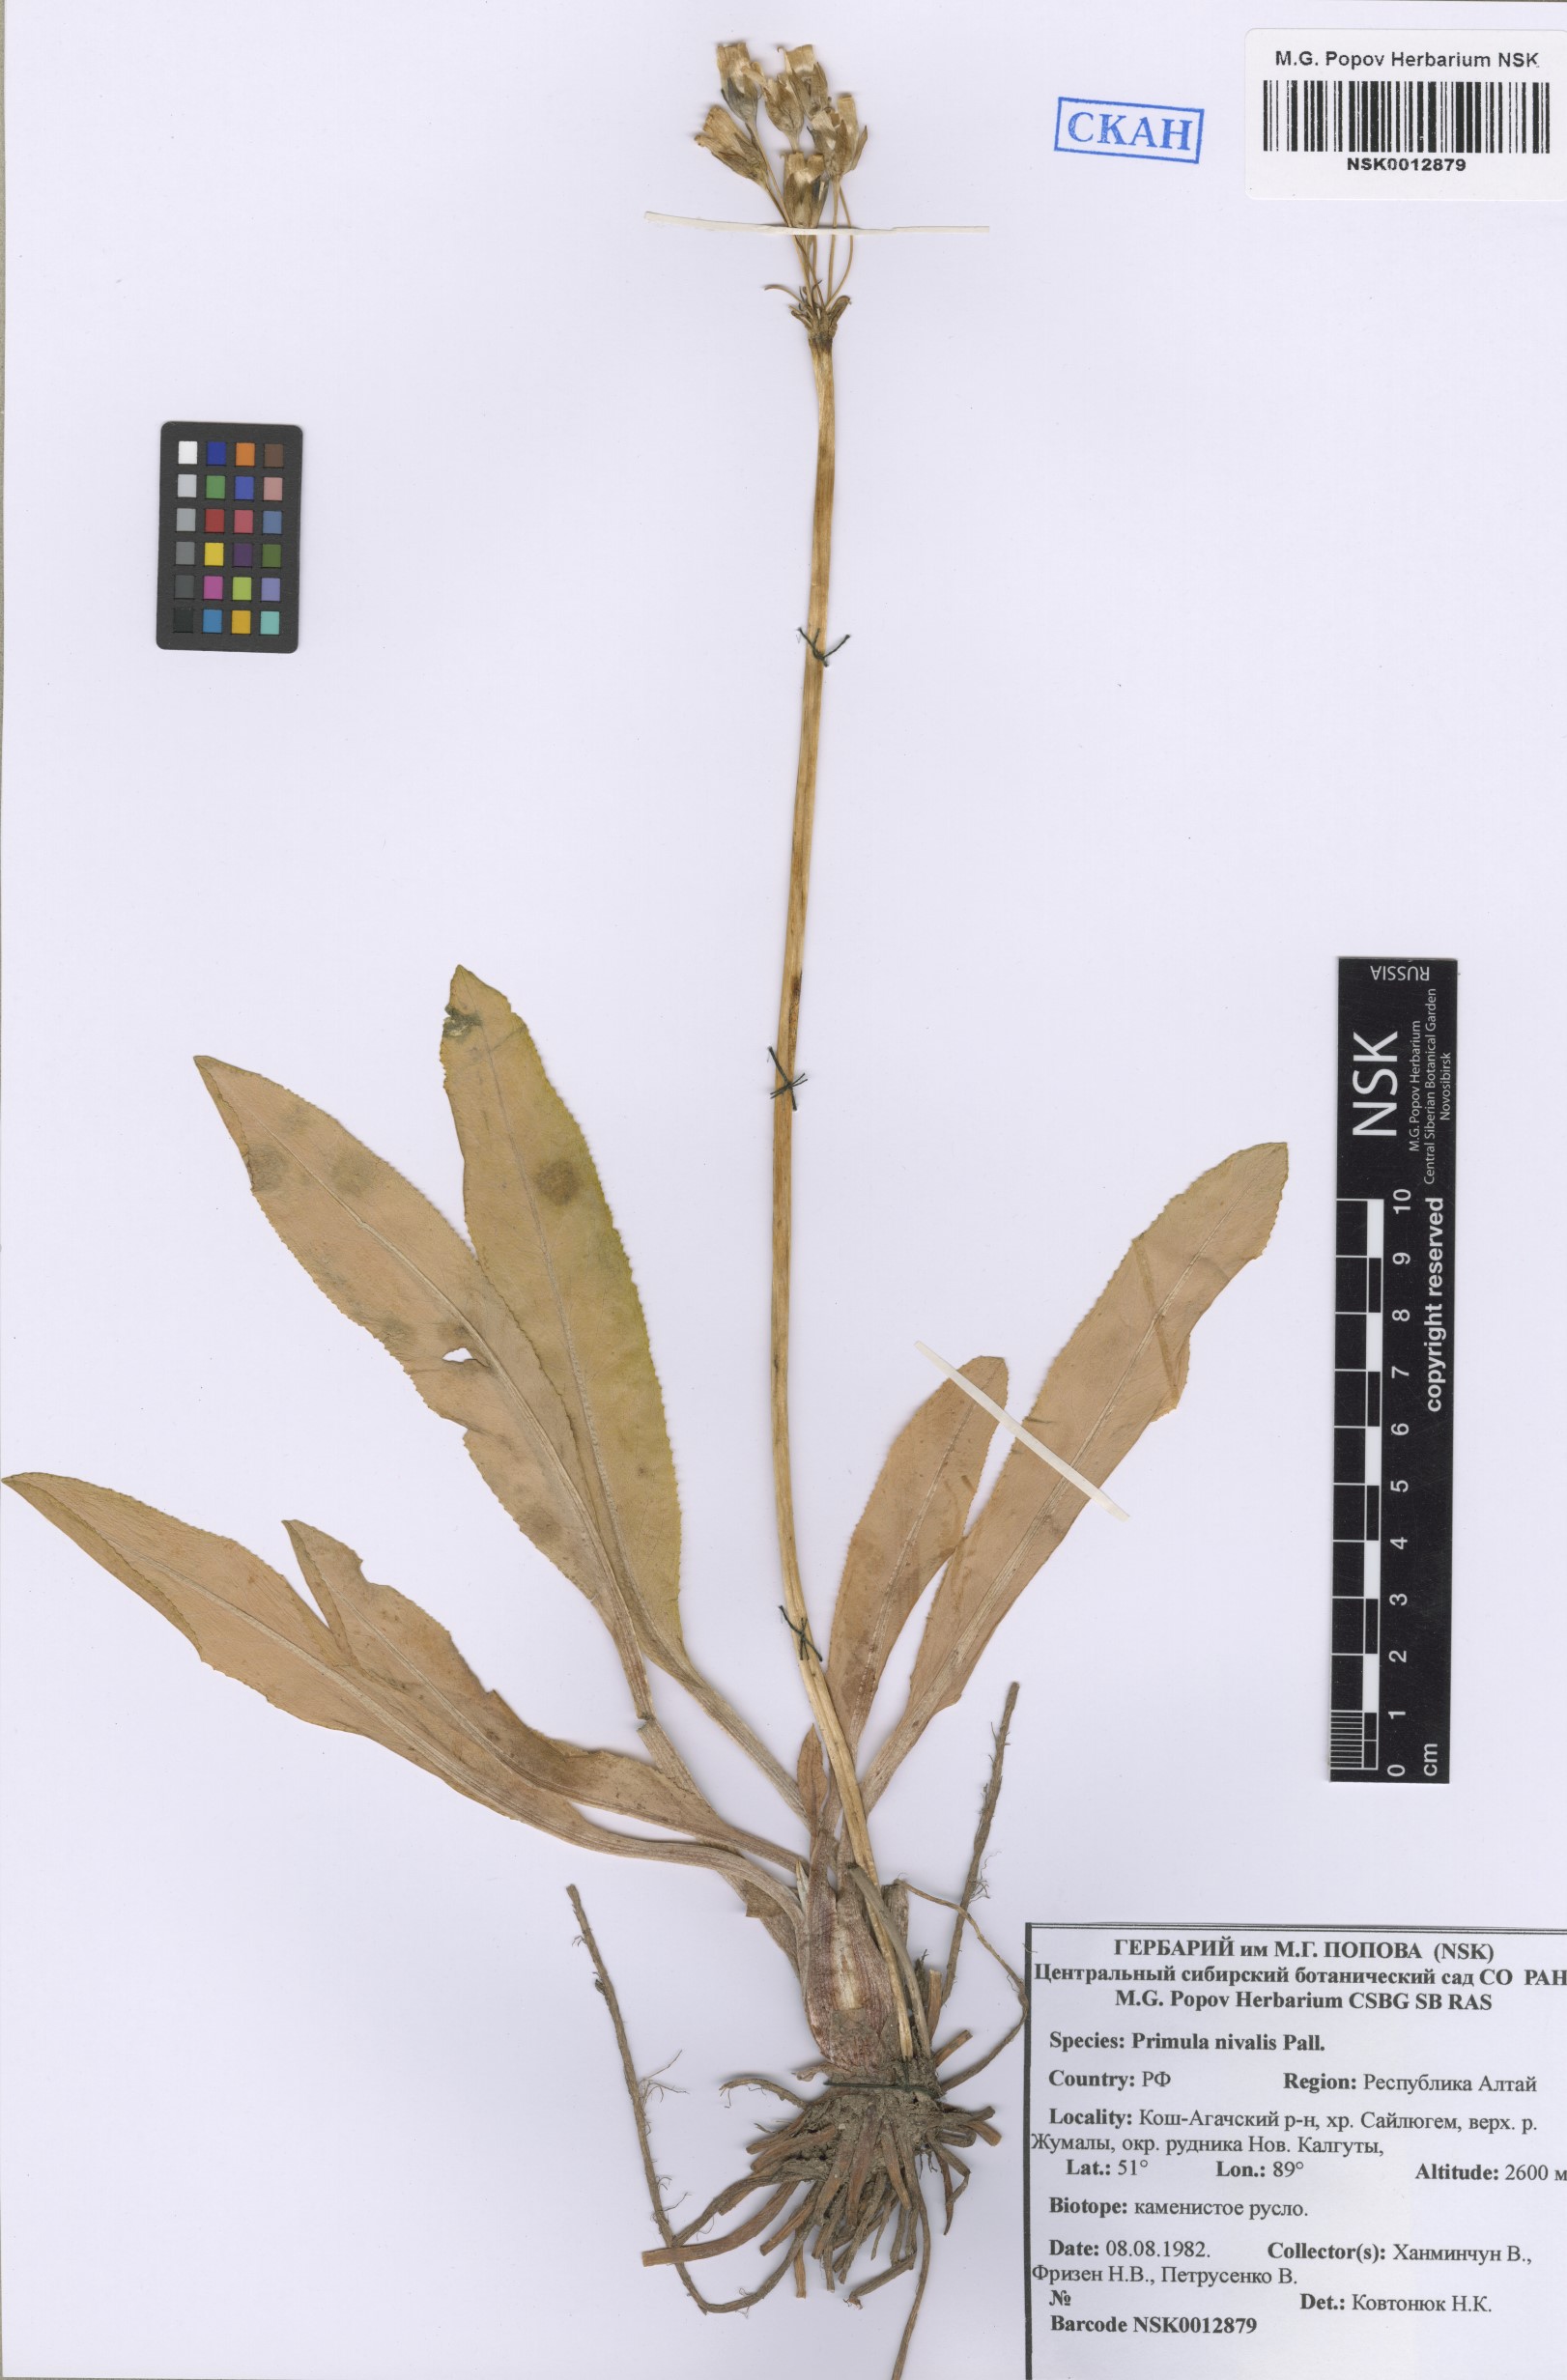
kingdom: Plantae
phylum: Tracheophyta
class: Magnoliopsida
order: Ericales
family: Primulaceae
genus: Primula
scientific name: Primula nivalis
